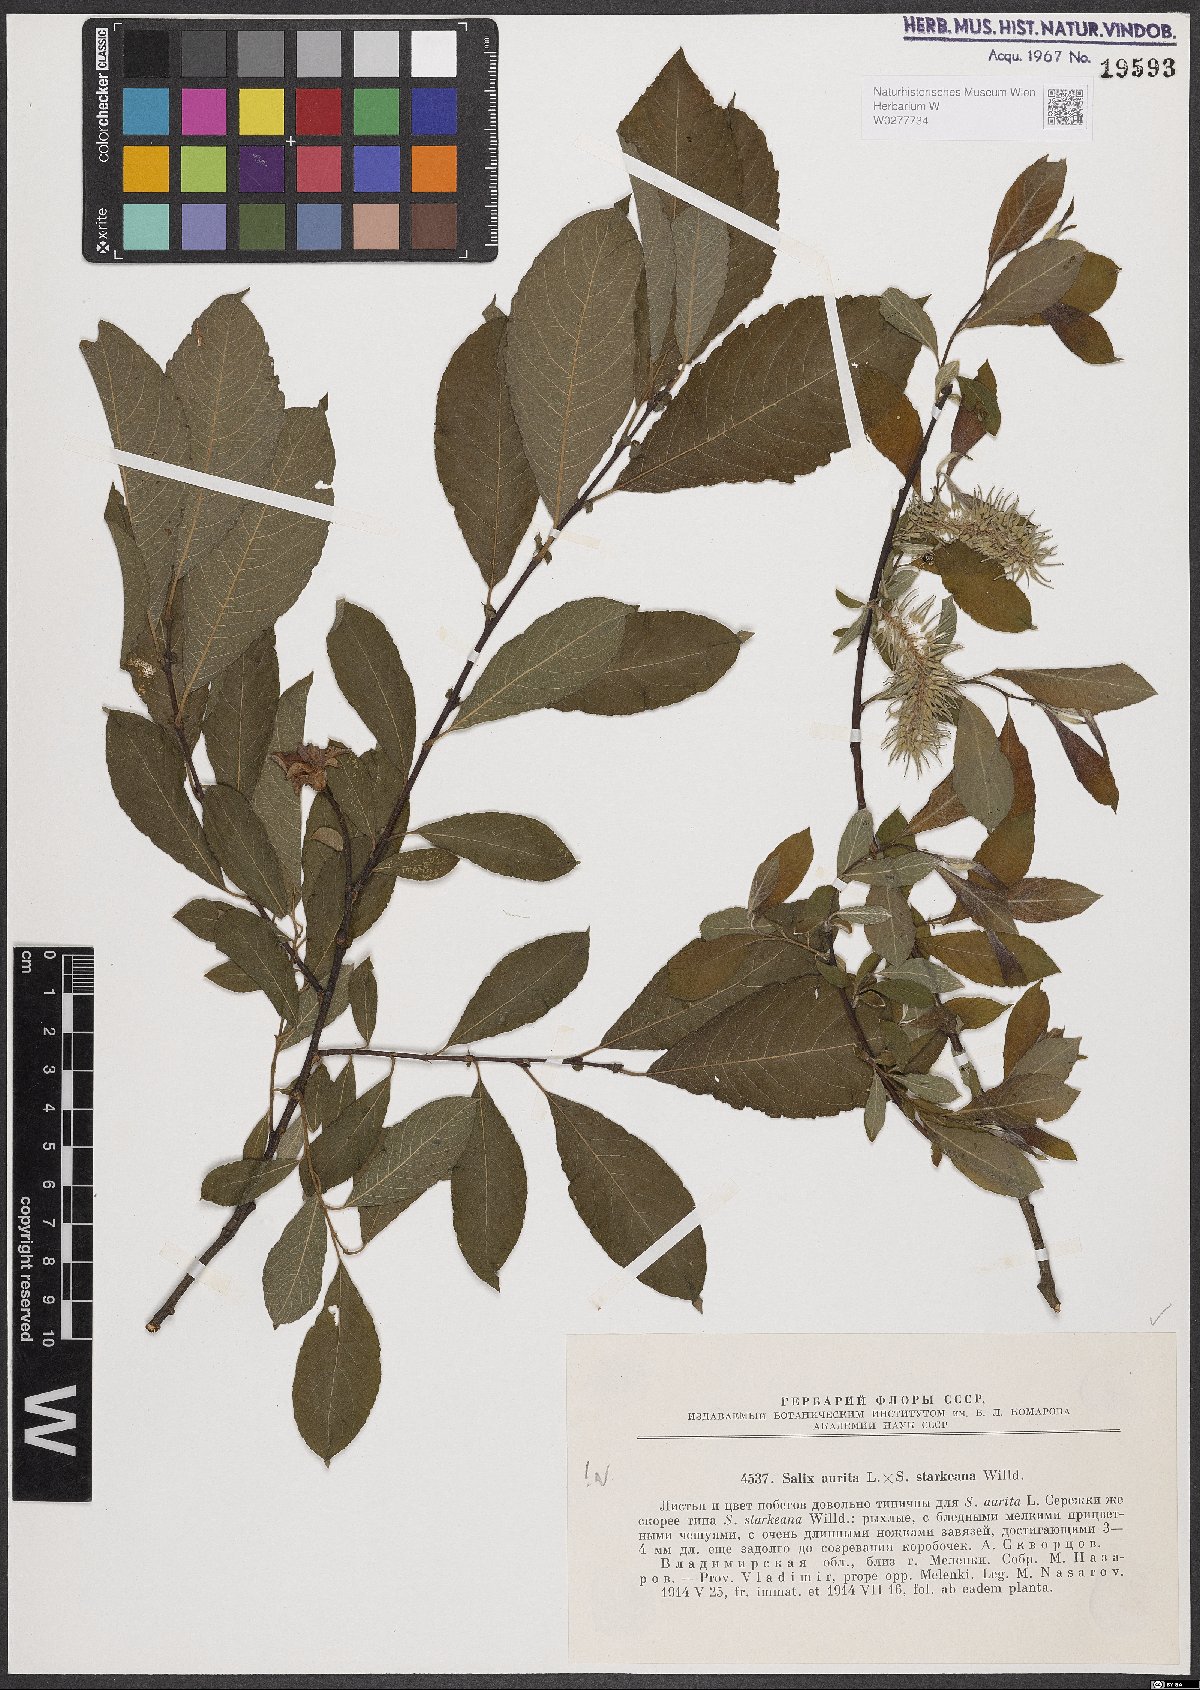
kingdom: Plantae
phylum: Tracheophyta
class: Magnoliopsida
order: Malpighiales
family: Salicaceae
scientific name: Salicaceae
